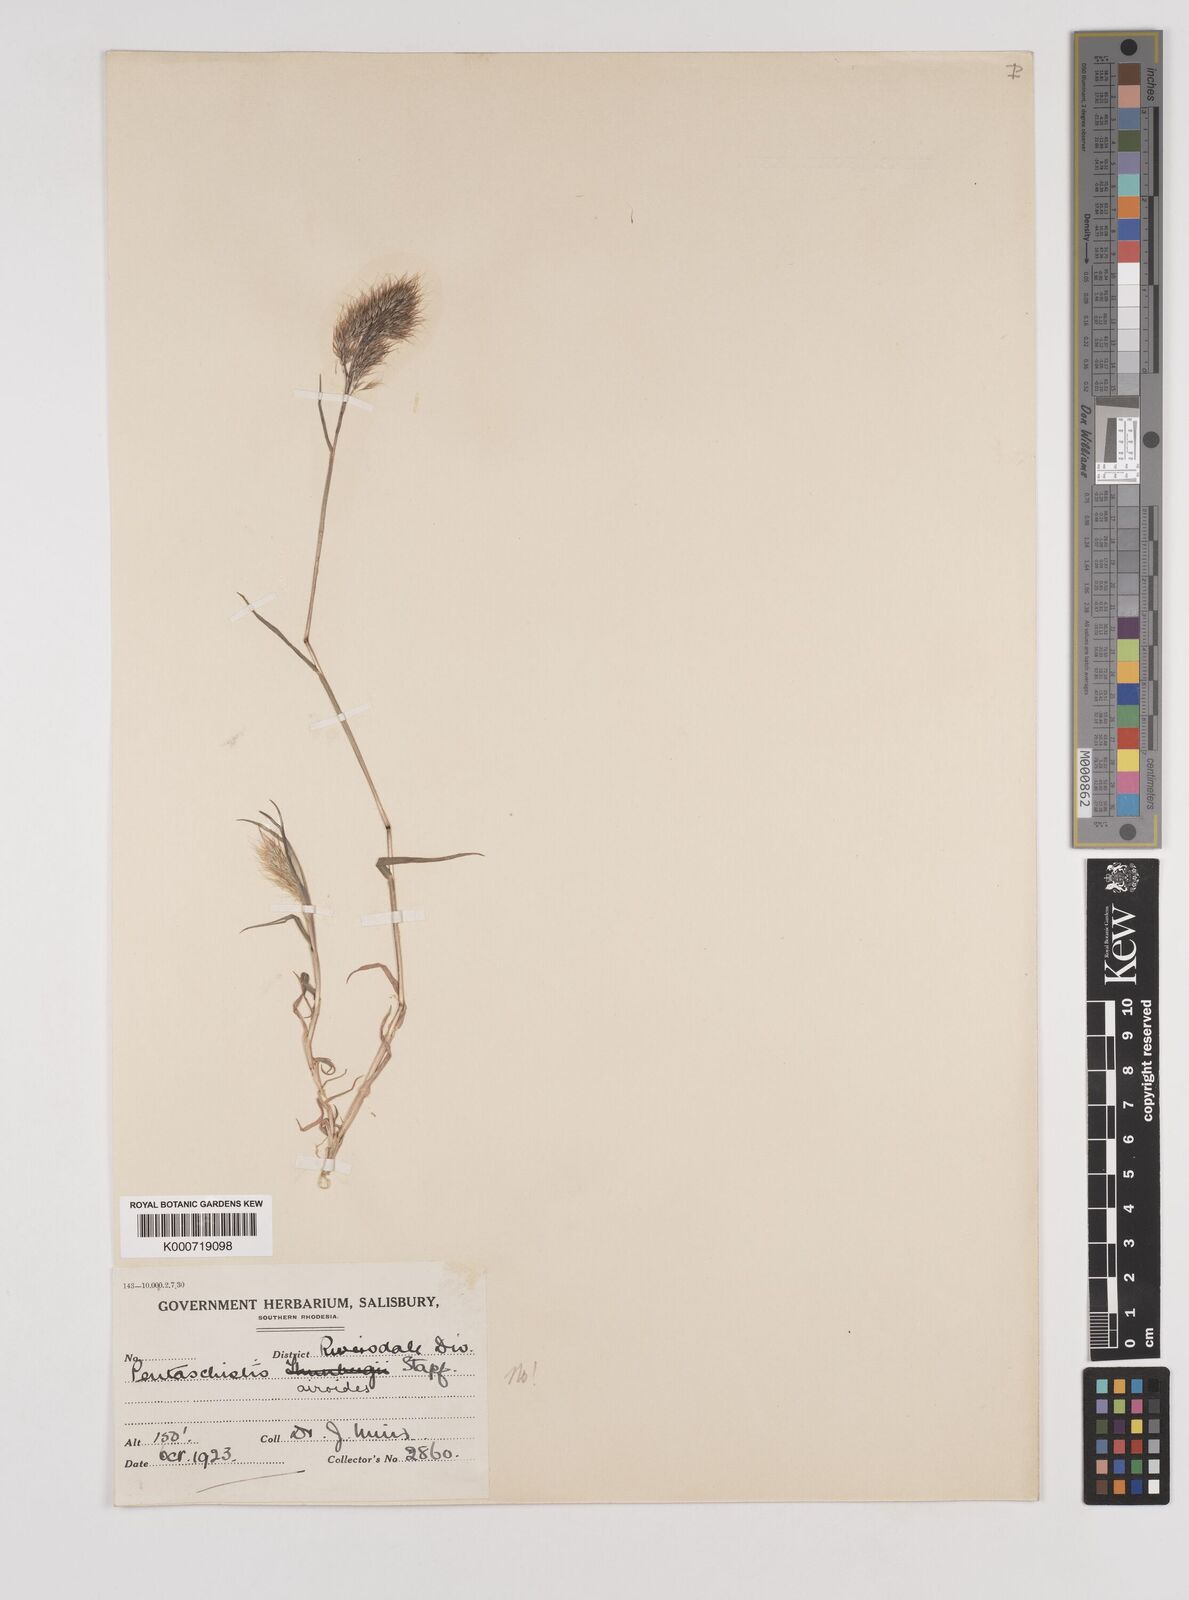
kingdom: Plantae
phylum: Tracheophyta
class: Liliopsida
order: Poales
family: Poaceae
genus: Pentameris
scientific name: Pentameris airoides
